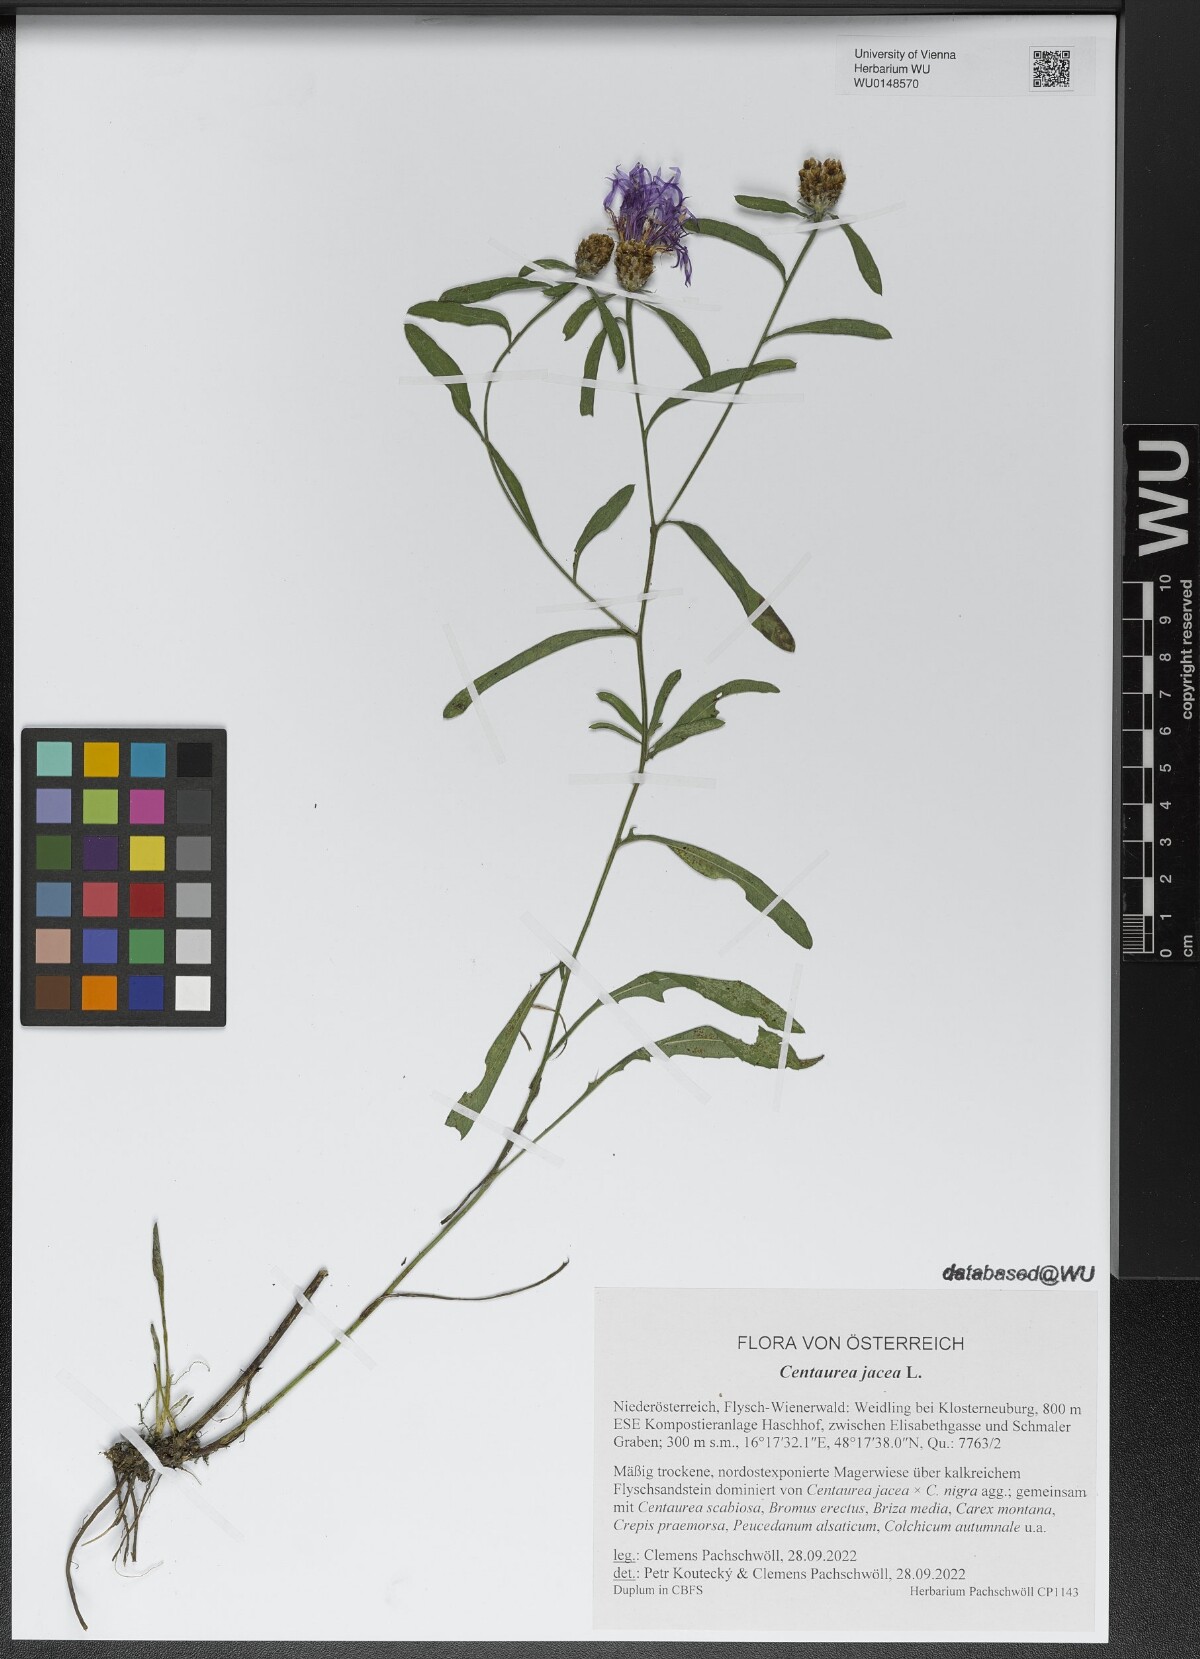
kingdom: Plantae
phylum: Tracheophyta
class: Magnoliopsida
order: Asterales
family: Asteraceae
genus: Centaurea
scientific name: Centaurea jacea
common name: Brown knapweed
